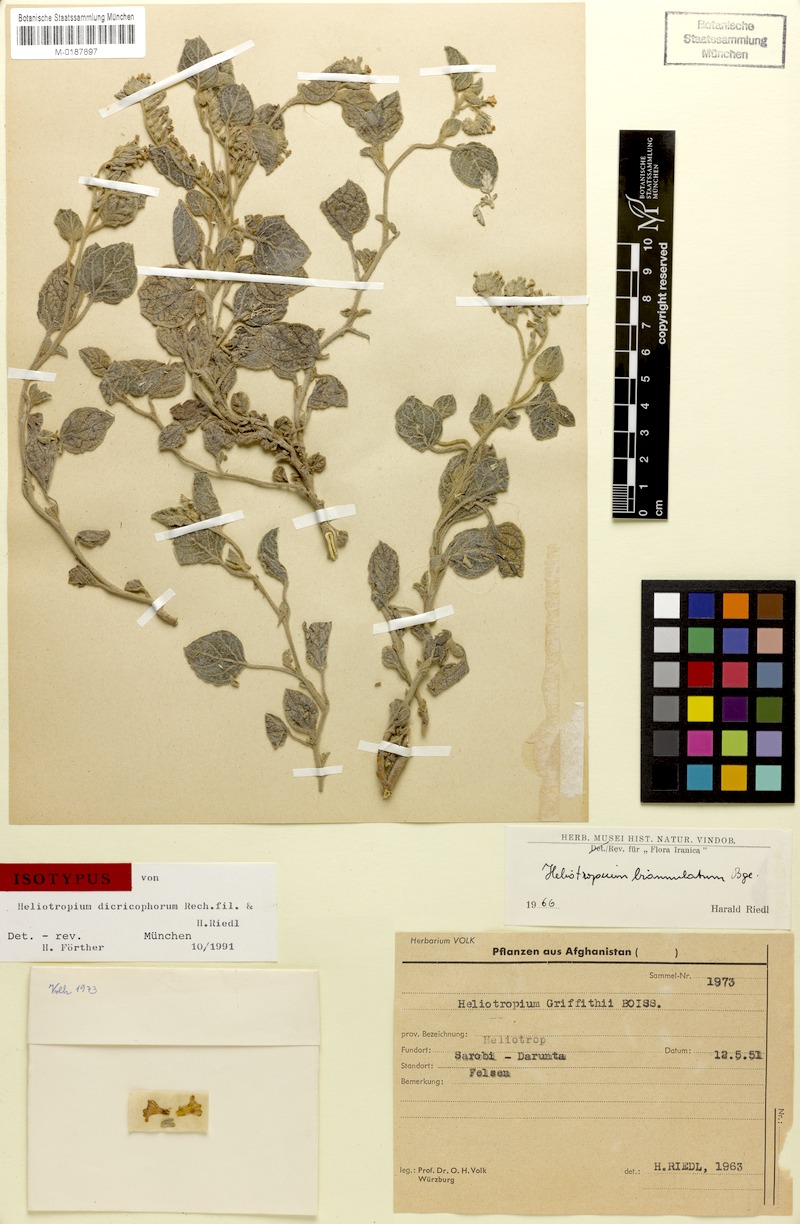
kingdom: Plantae
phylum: Tracheophyta
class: Magnoliopsida
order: Boraginales
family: Heliotropiaceae
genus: Heliotropium
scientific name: Heliotropium biannulatum
